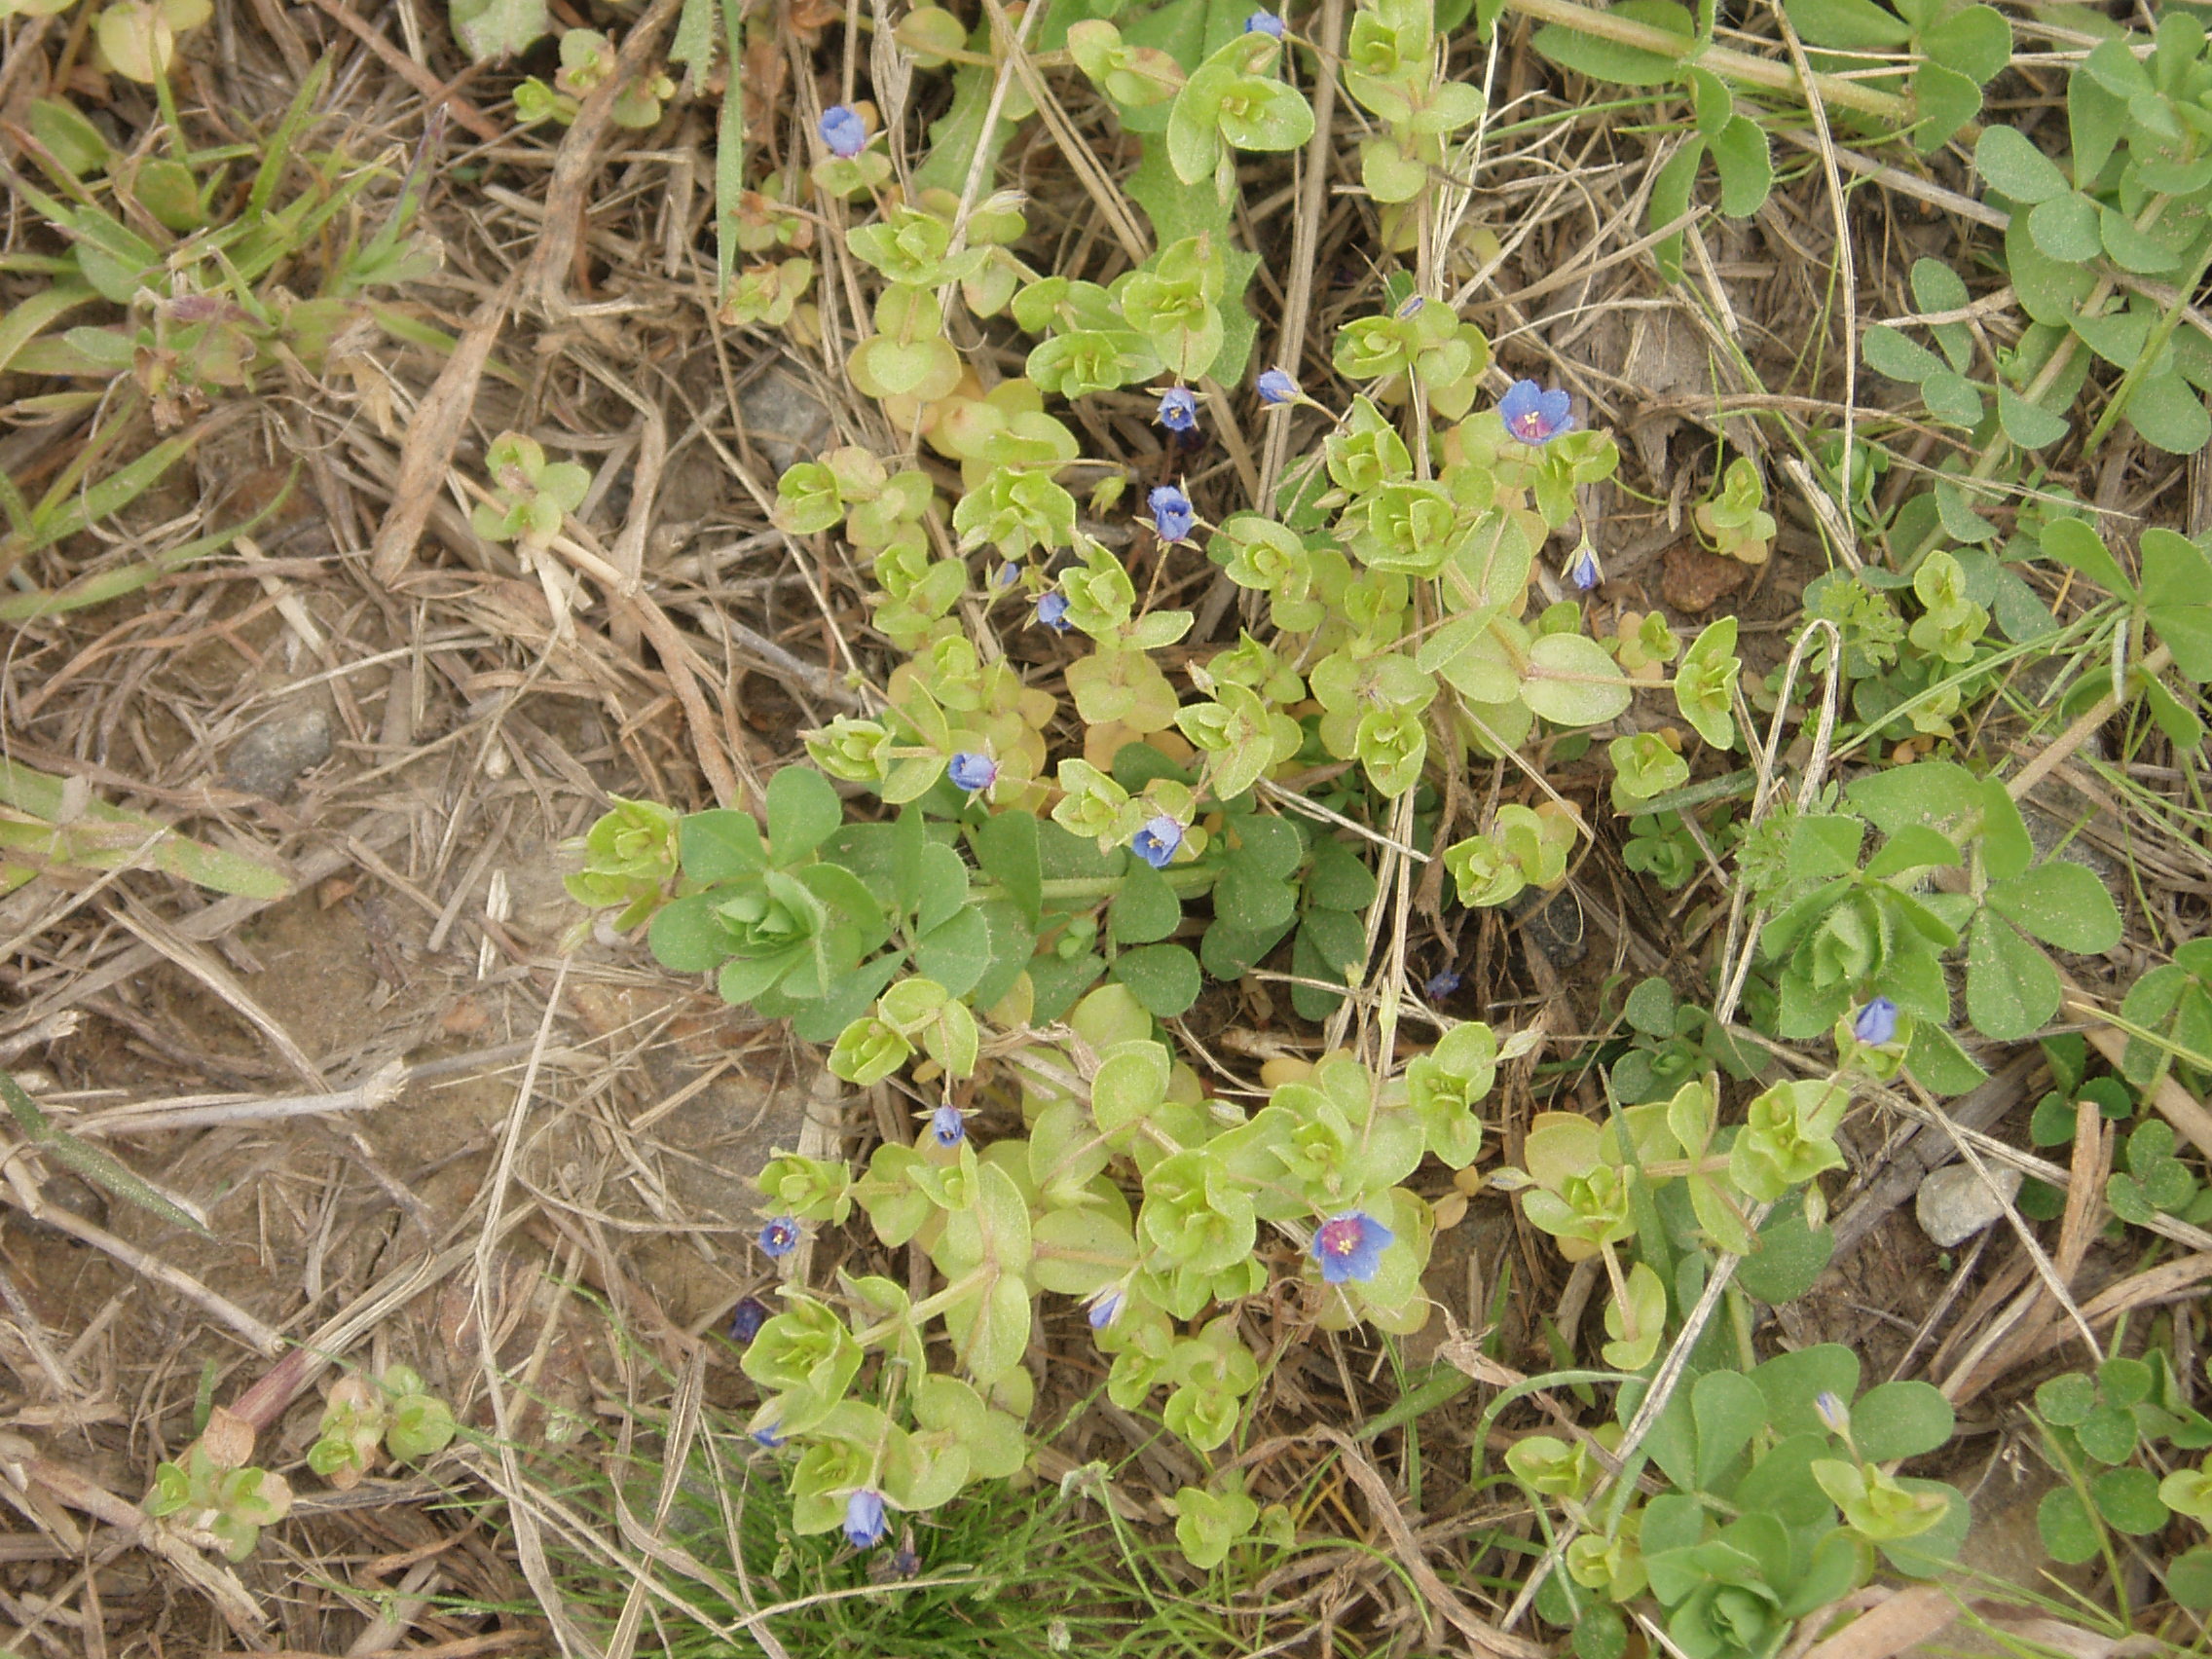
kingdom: Plantae
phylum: Tracheophyta
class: Magnoliopsida
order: Ericales
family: Primulaceae
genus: Lysimachia
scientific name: Lysimachia loeflingii
